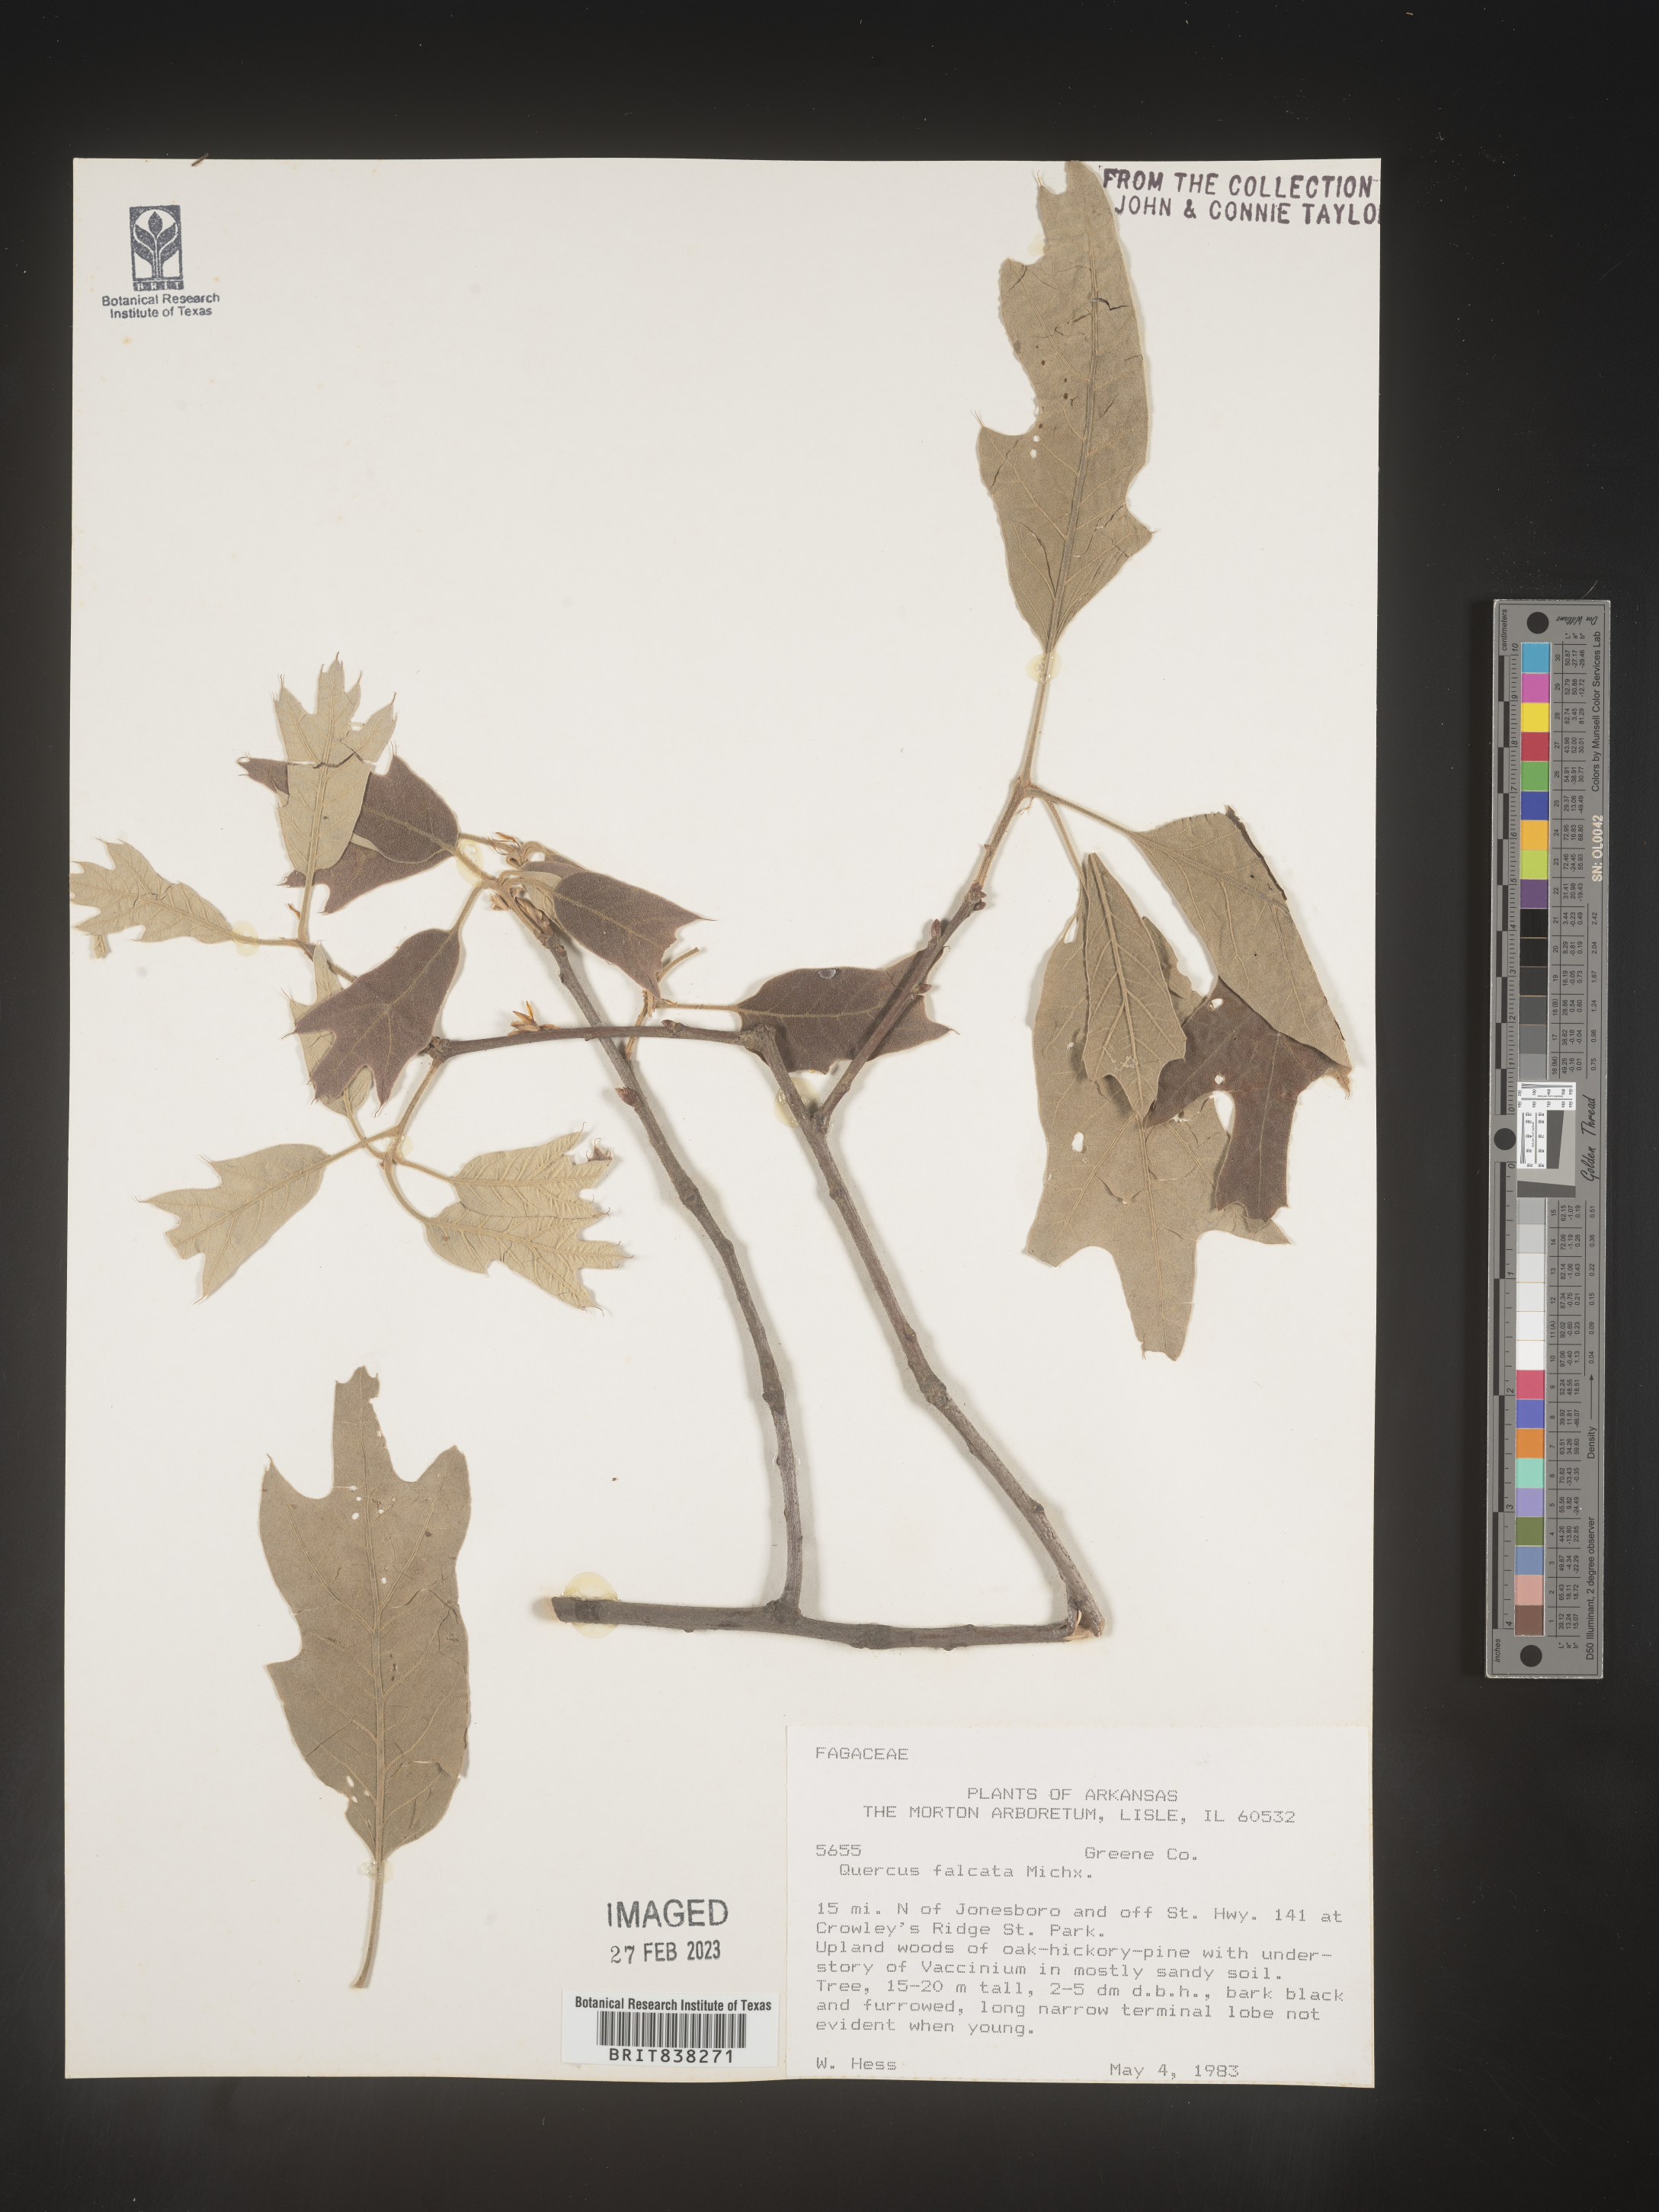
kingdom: Plantae
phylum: Tracheophyta
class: Magnoliopsida
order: Fagales
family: Fagaceae
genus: Quercus
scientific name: Quercus falcata
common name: Southern red oak
